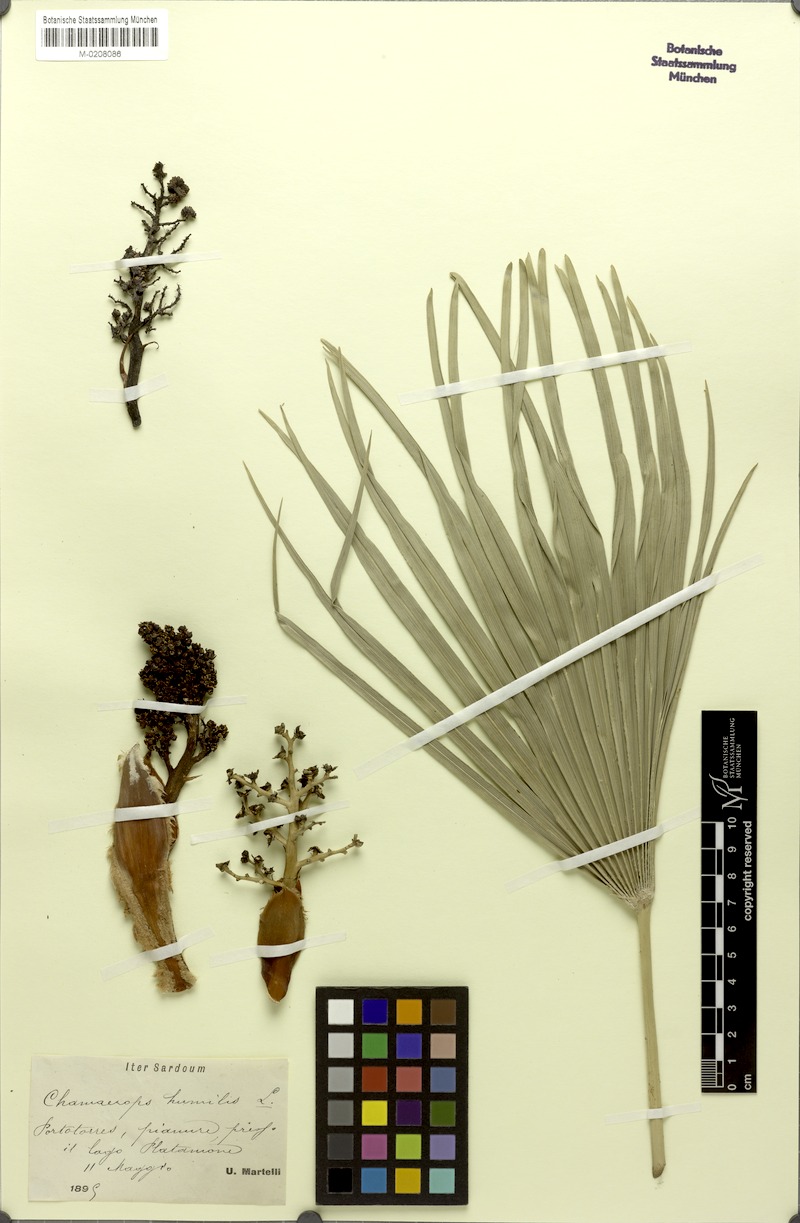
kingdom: Plantae
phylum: Tracheophyta
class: Liliopsida
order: Arecales
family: Arecaceae
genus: Chamaerops
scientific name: Chamaerops humilis
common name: Dwarf fan palm
